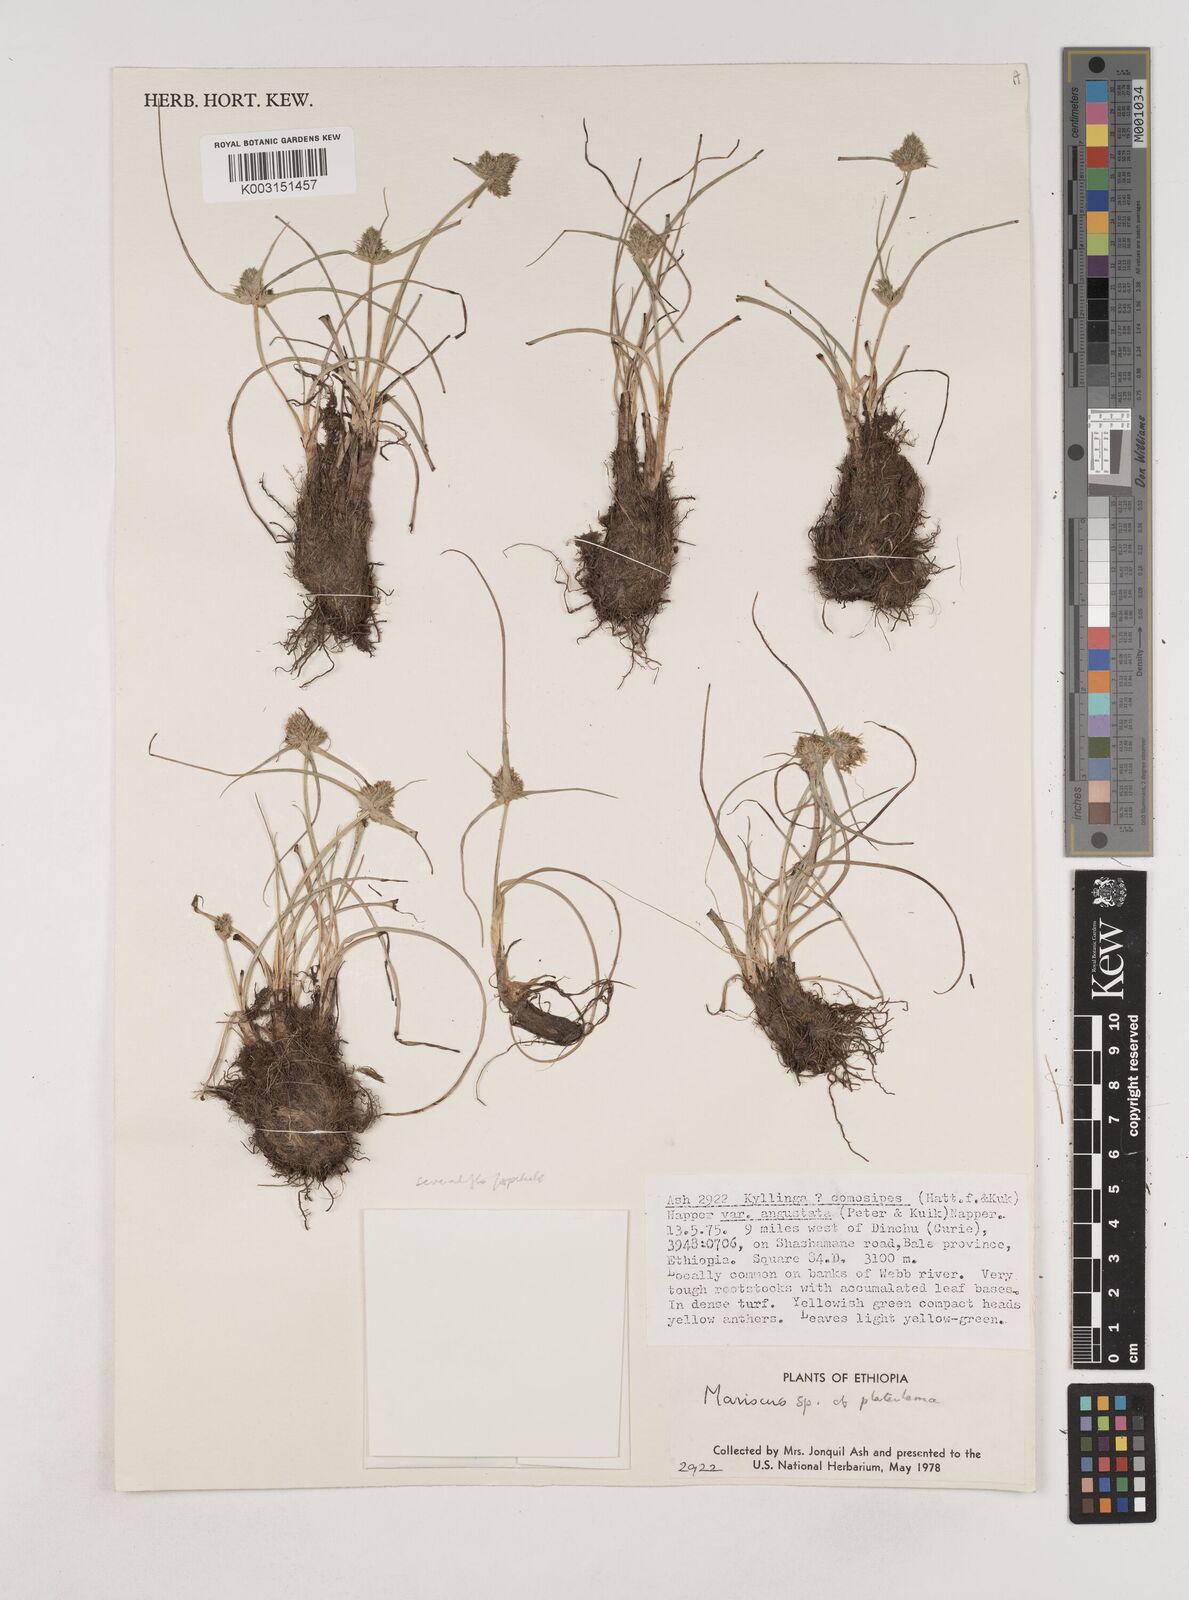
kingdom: Plantae
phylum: Tracheophyta
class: Liliopsida
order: Poales
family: Cyperaceae
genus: Cyperus
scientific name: Cyperus plateilema
